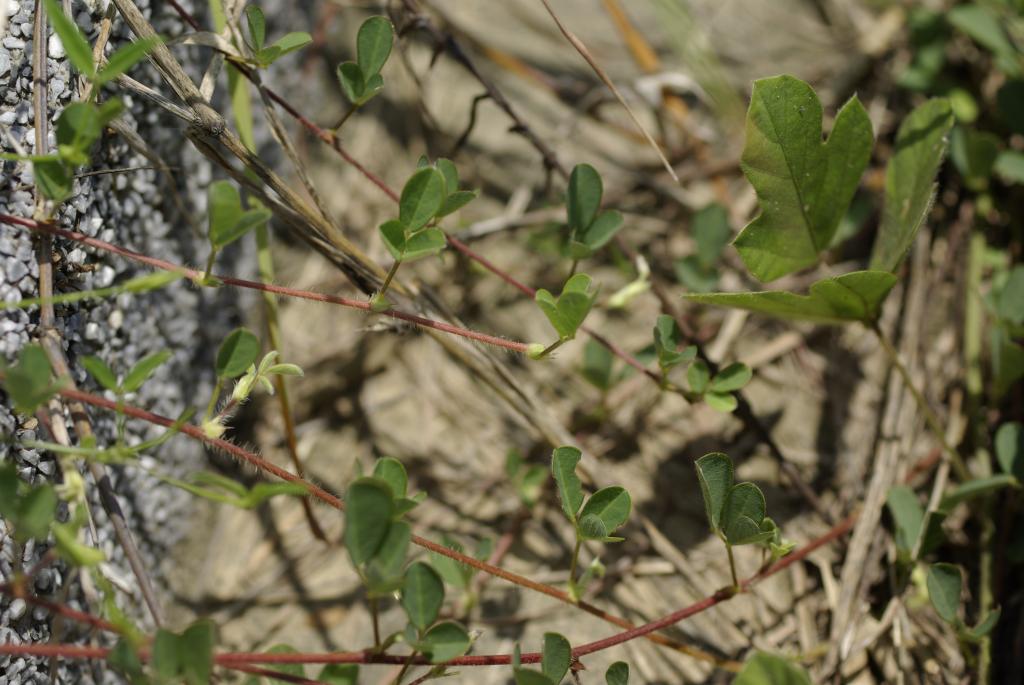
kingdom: Plantae
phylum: Tracheophyta
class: Magnoliopsida
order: Fabales
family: Fabaceae
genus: Grona
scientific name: Grona heterophylla
